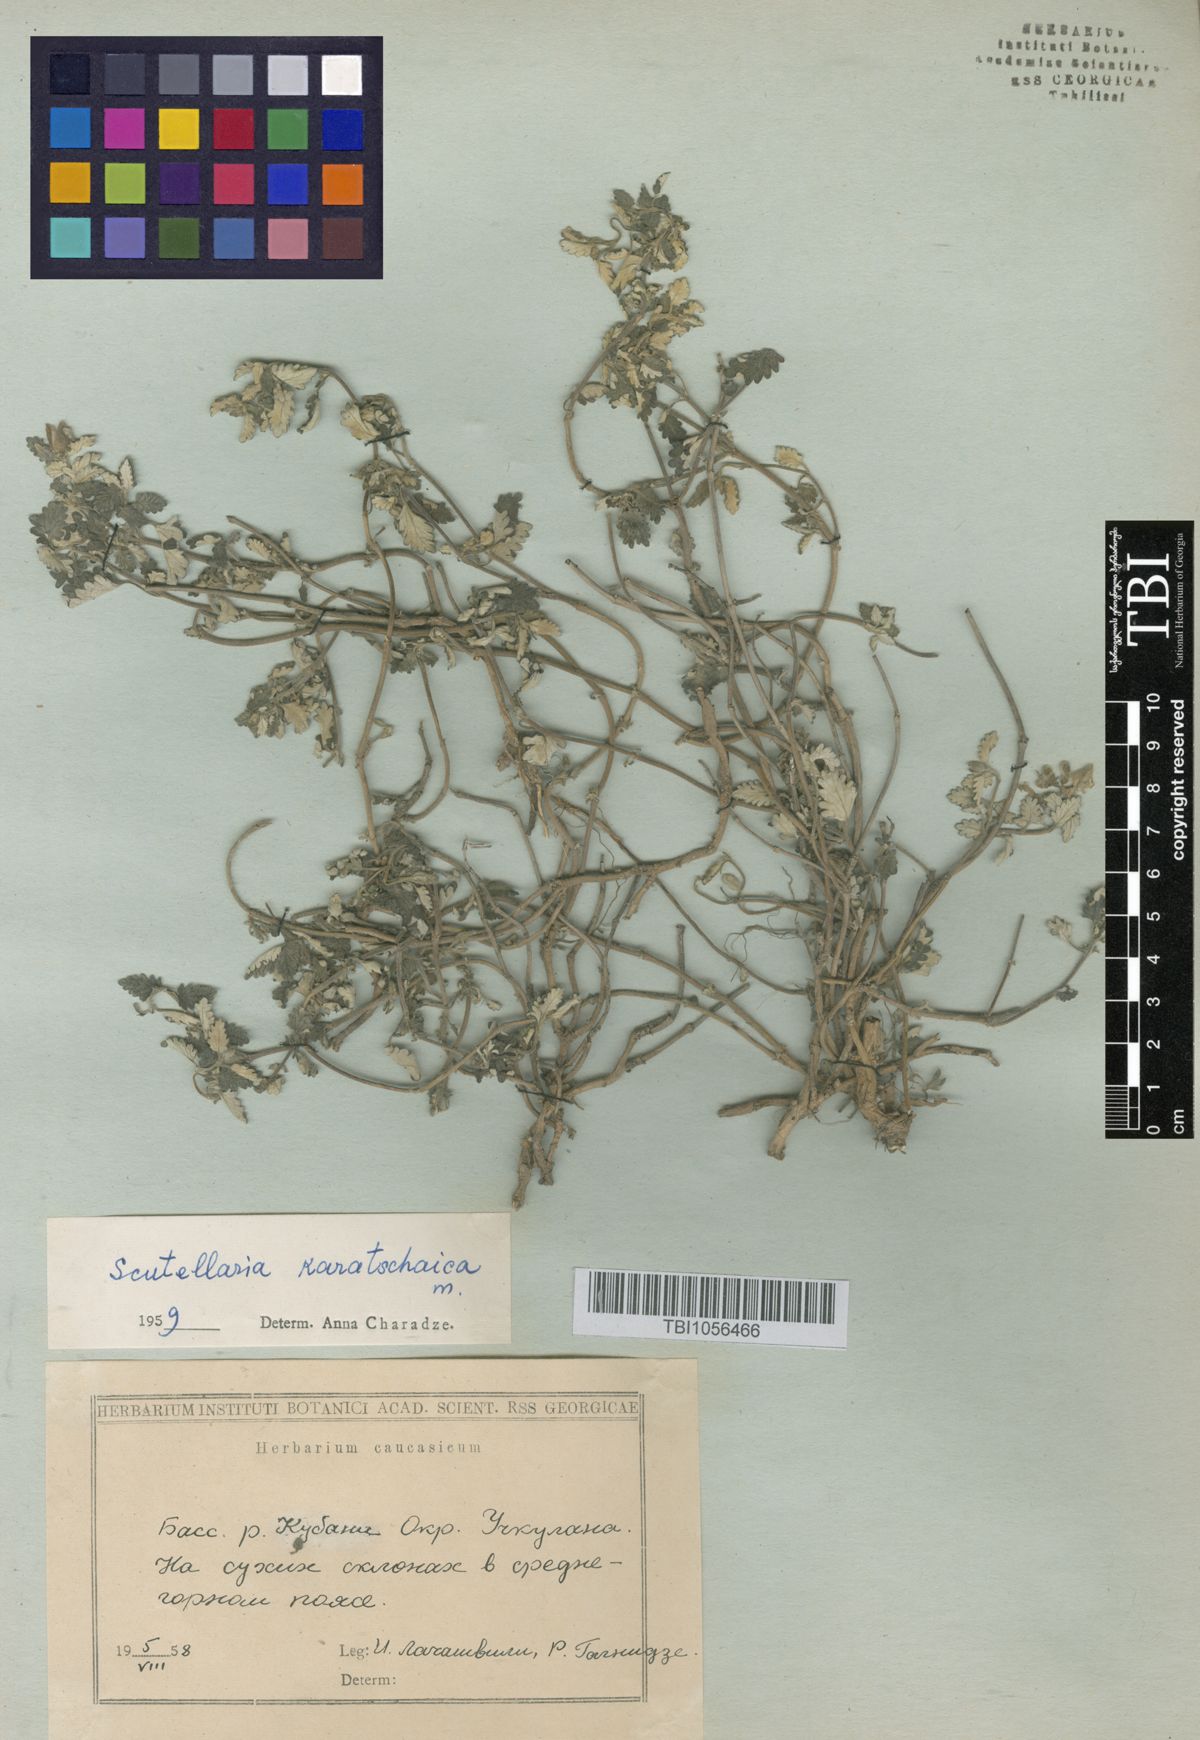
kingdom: Plantae
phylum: Tracheophyta
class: Magnoliopsida
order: Lamiales
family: Lamiaceae
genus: Scutellaria
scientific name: Scutellaria orientalis
